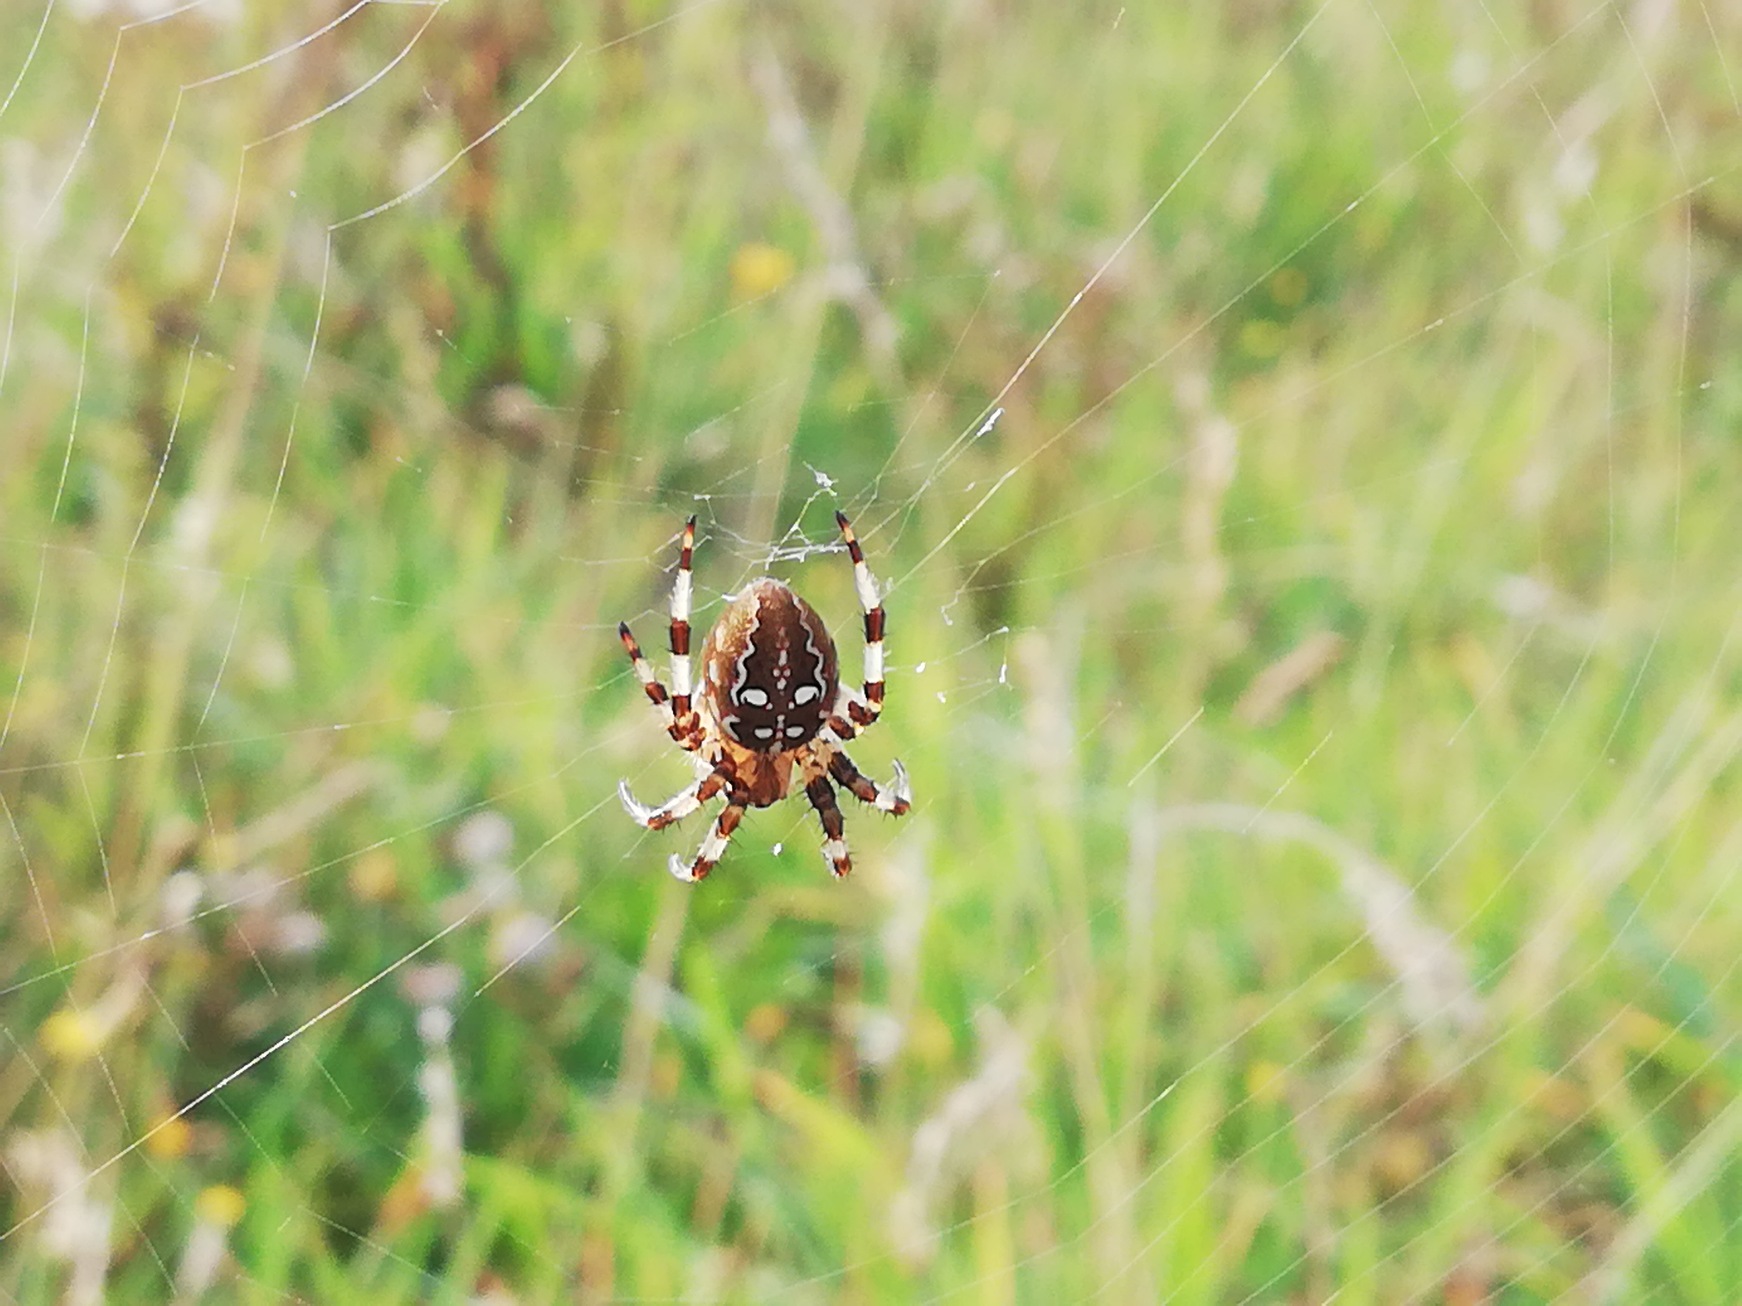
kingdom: Animalia
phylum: Arthropoda
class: Arachnida
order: Araneae
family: Araneidae
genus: Araneus
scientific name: Araneus quadratus
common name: Kvadratedderkop
